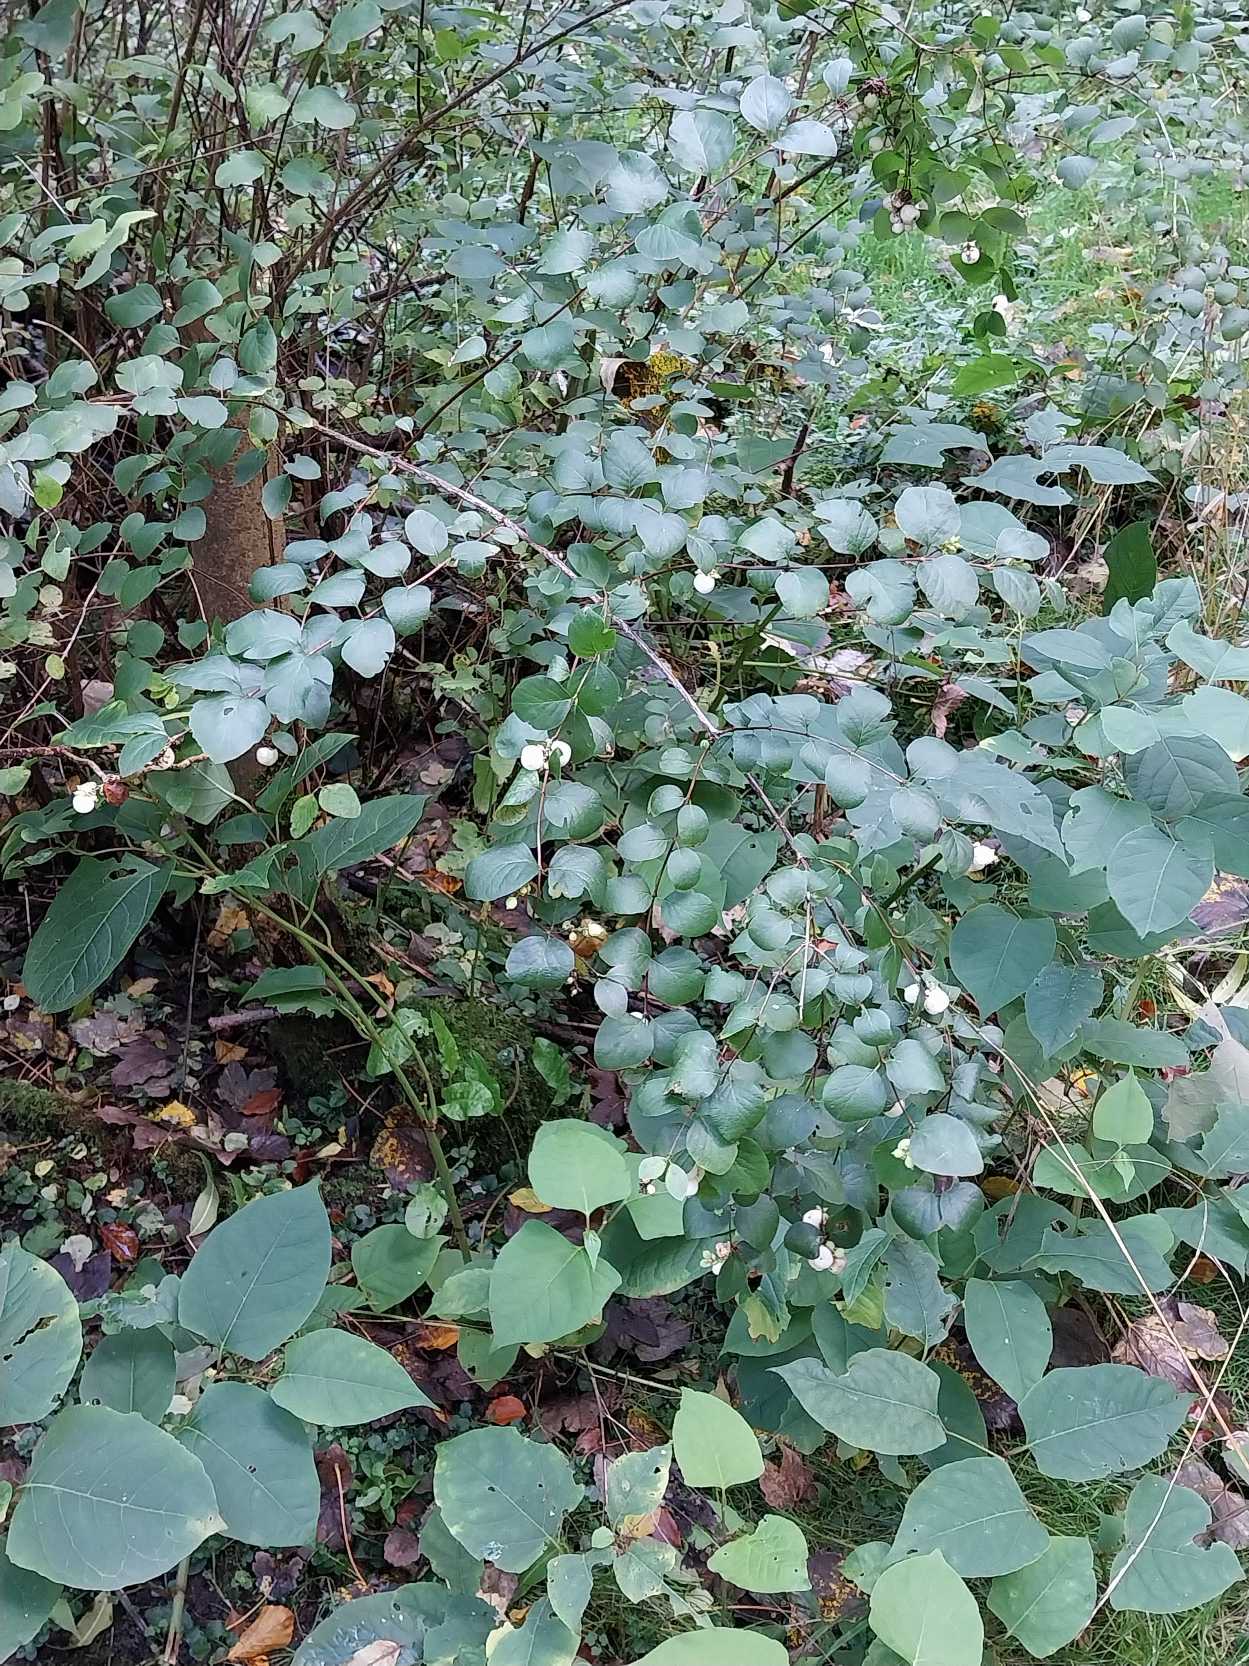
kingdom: Plantae
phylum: Tracheophyta
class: Magnoliopsida
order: Dipsacales
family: Caprifoliaceae
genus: Symphoricarpos
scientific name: Symphoricarpos albus
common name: Almindelig snebær
